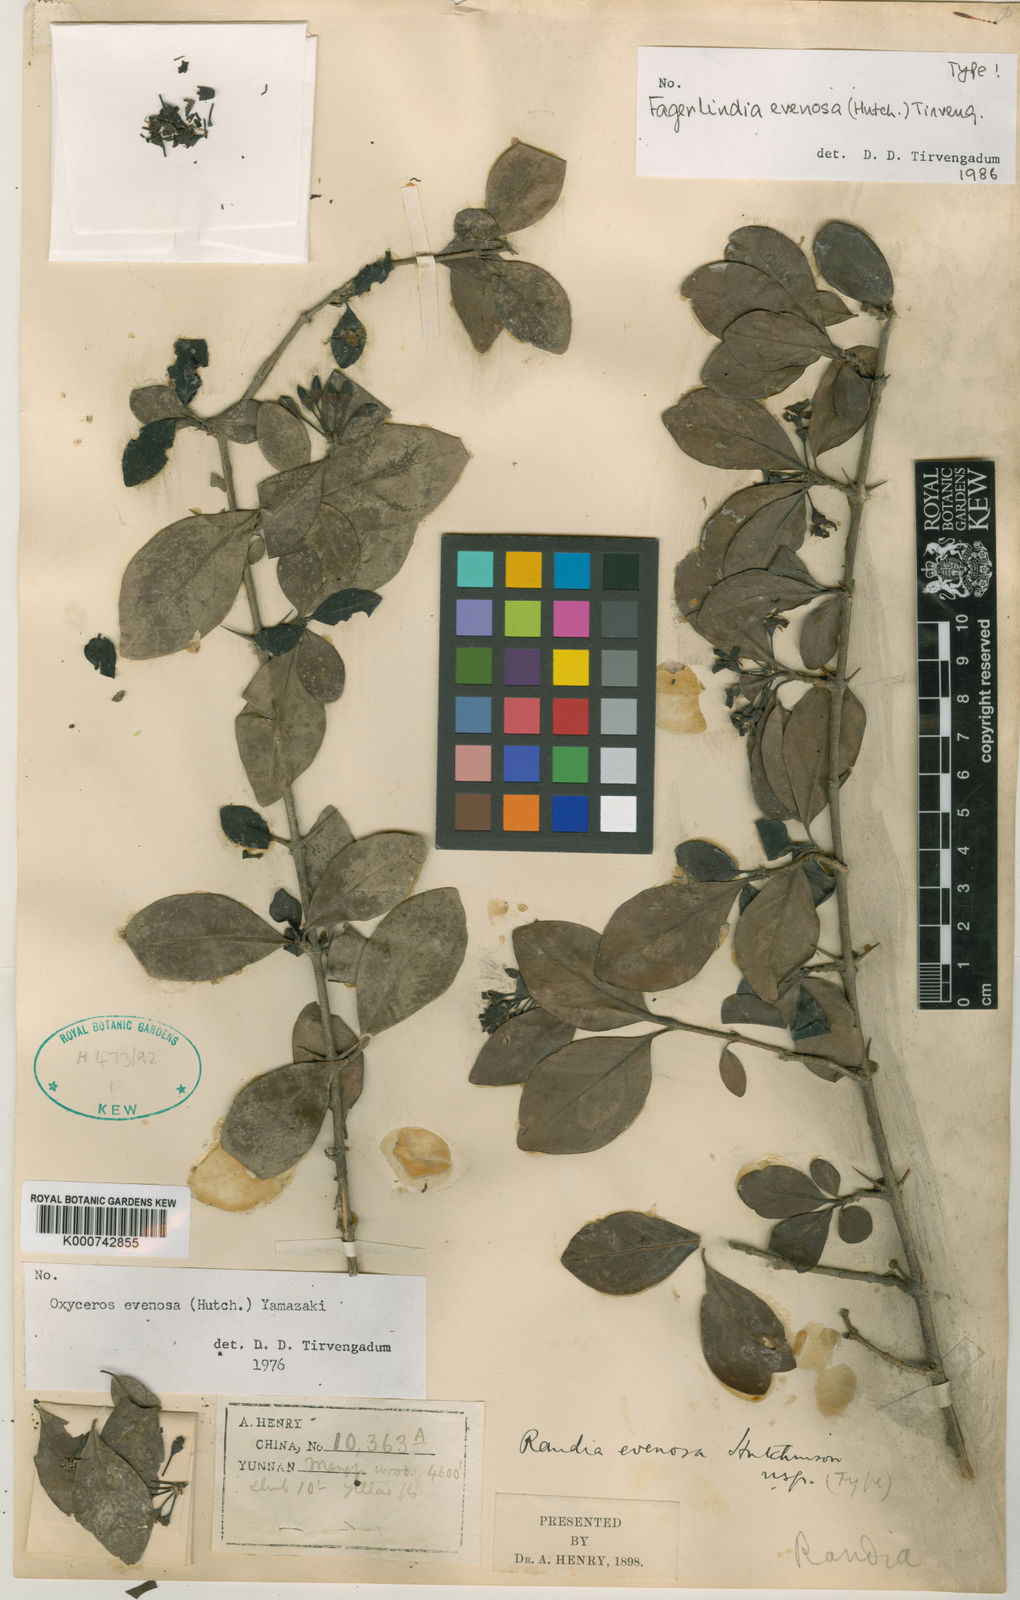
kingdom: Plantae
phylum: Tracheophyta
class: Magnoliopsida
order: Gentianales
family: Rubiaceae
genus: Benkara
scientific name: Benkara
